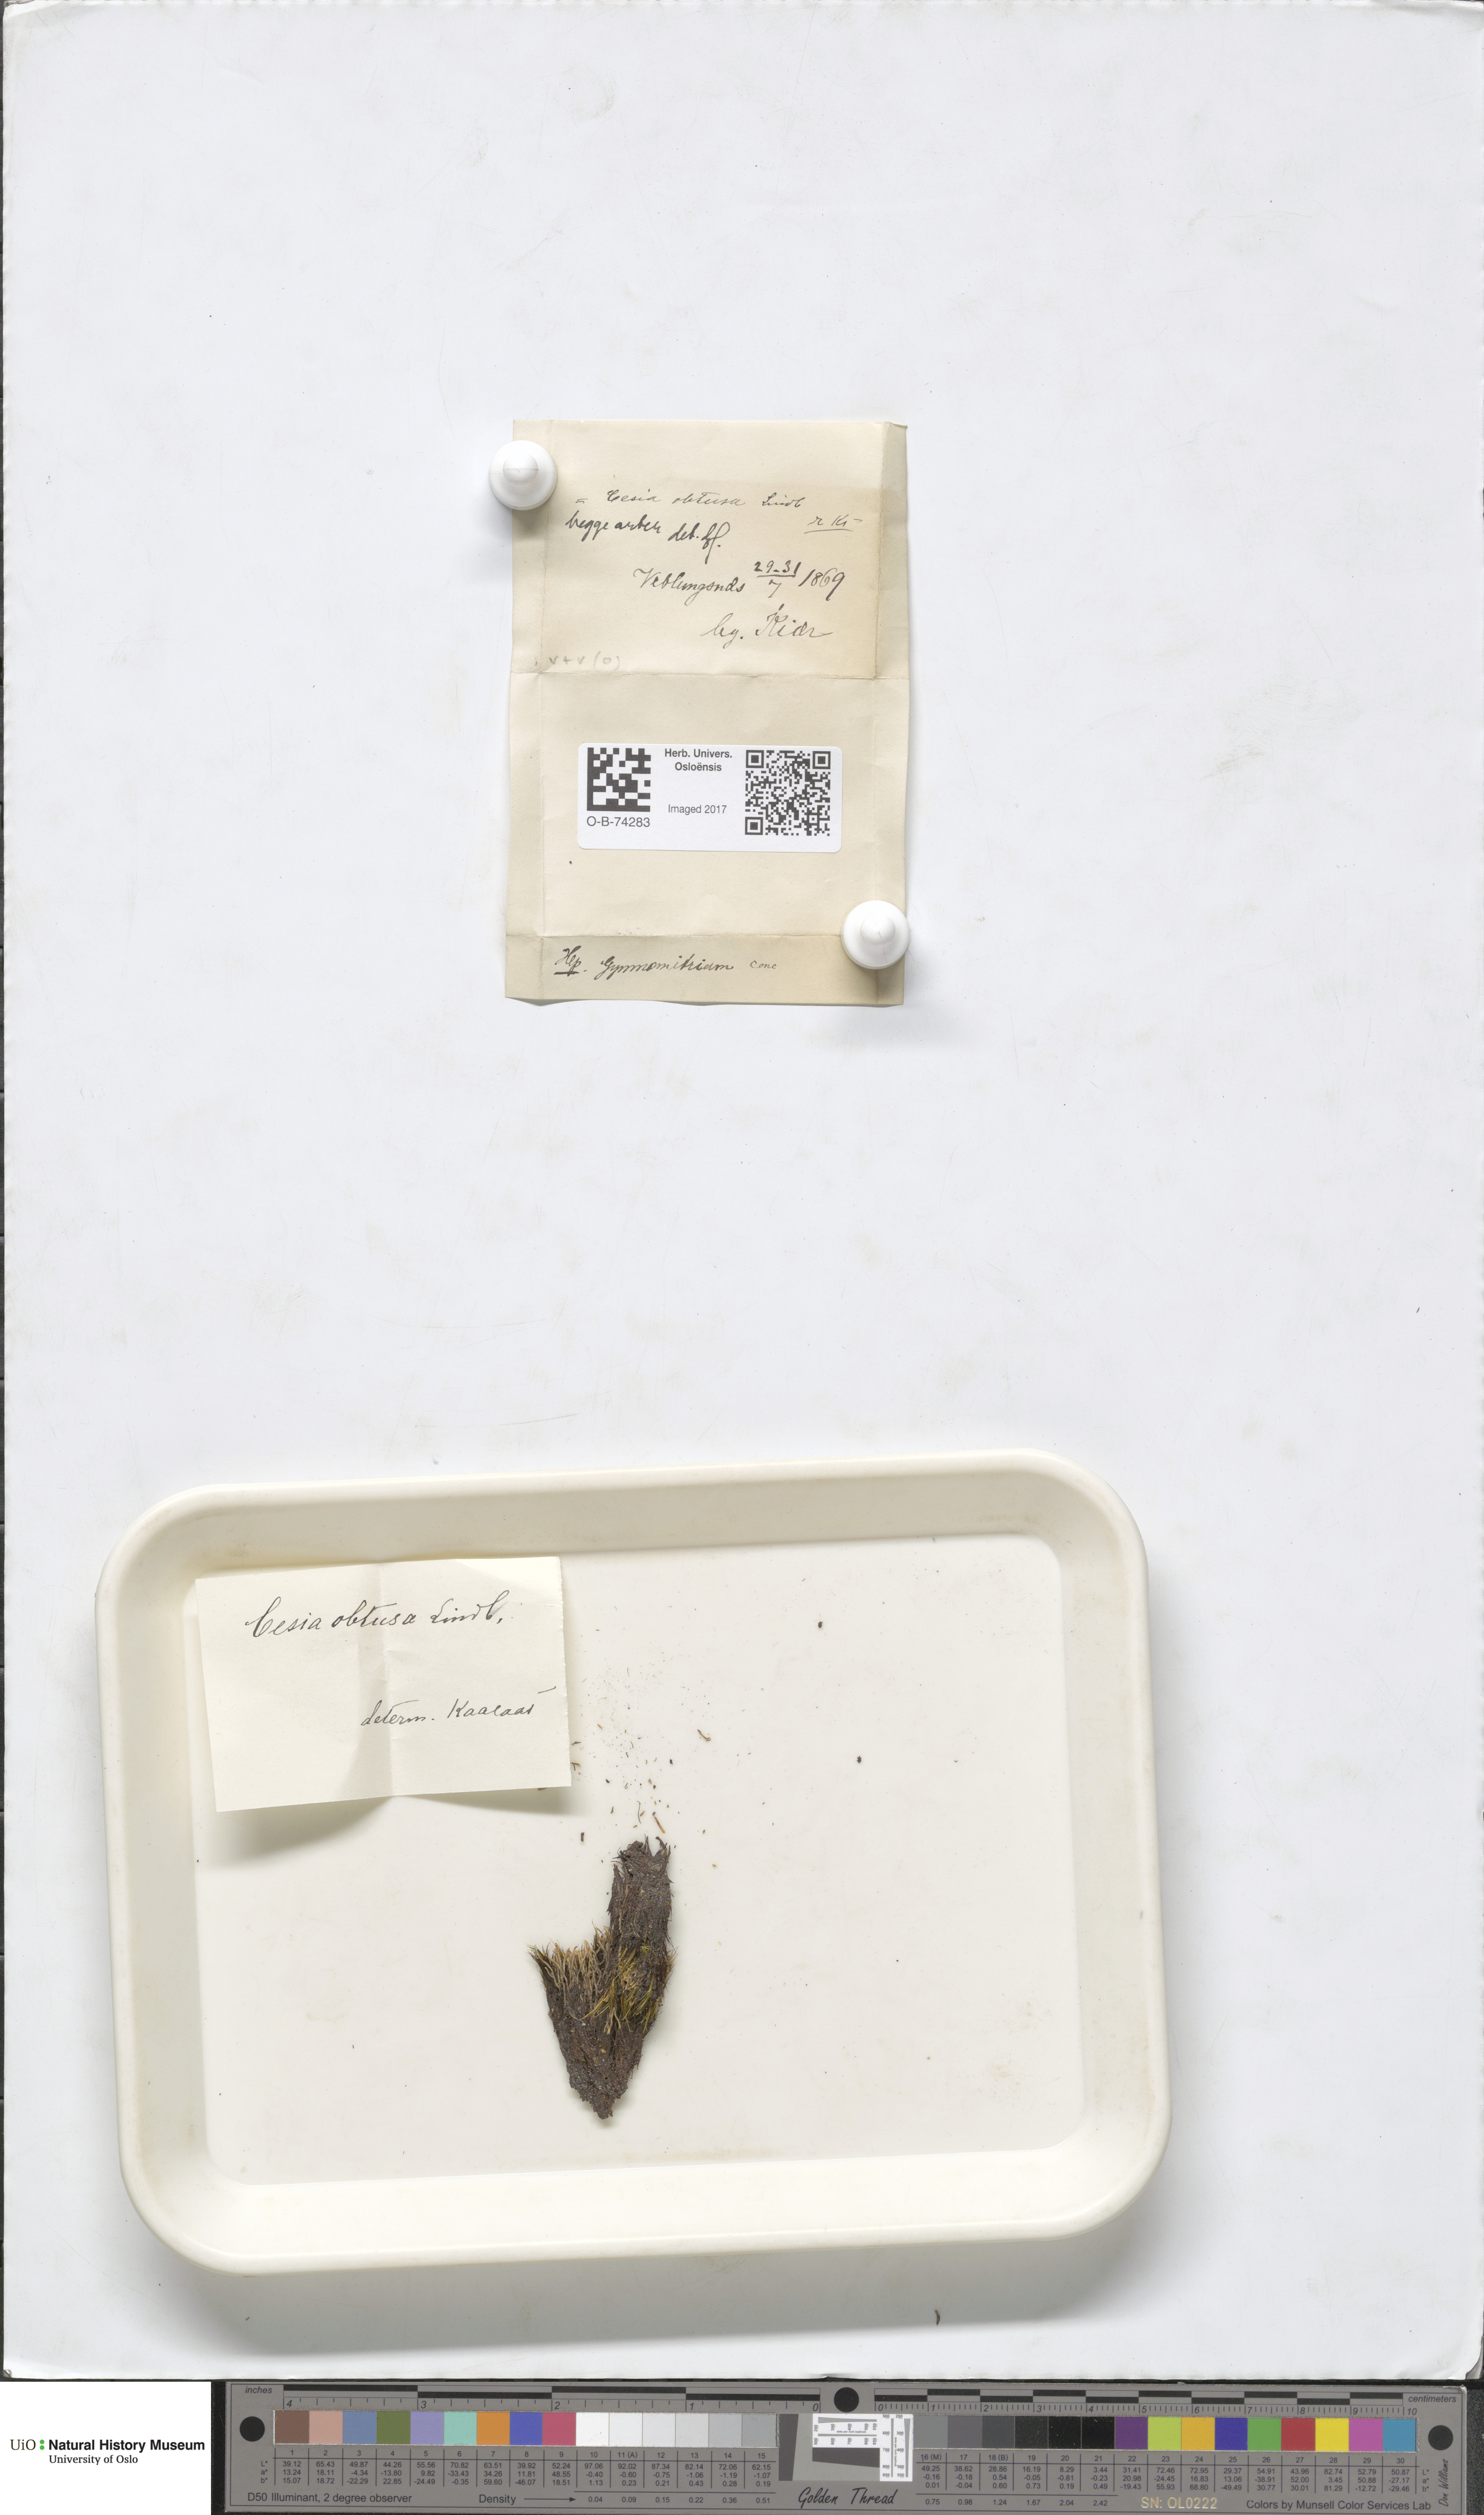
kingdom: Plantae
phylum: Marchantiophyta
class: Jungermanniopsida
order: Jungermanniales
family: Gymnomitriaceae
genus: Gymnomitrion
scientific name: Gymnomitrion obtusum
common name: White frostwort
